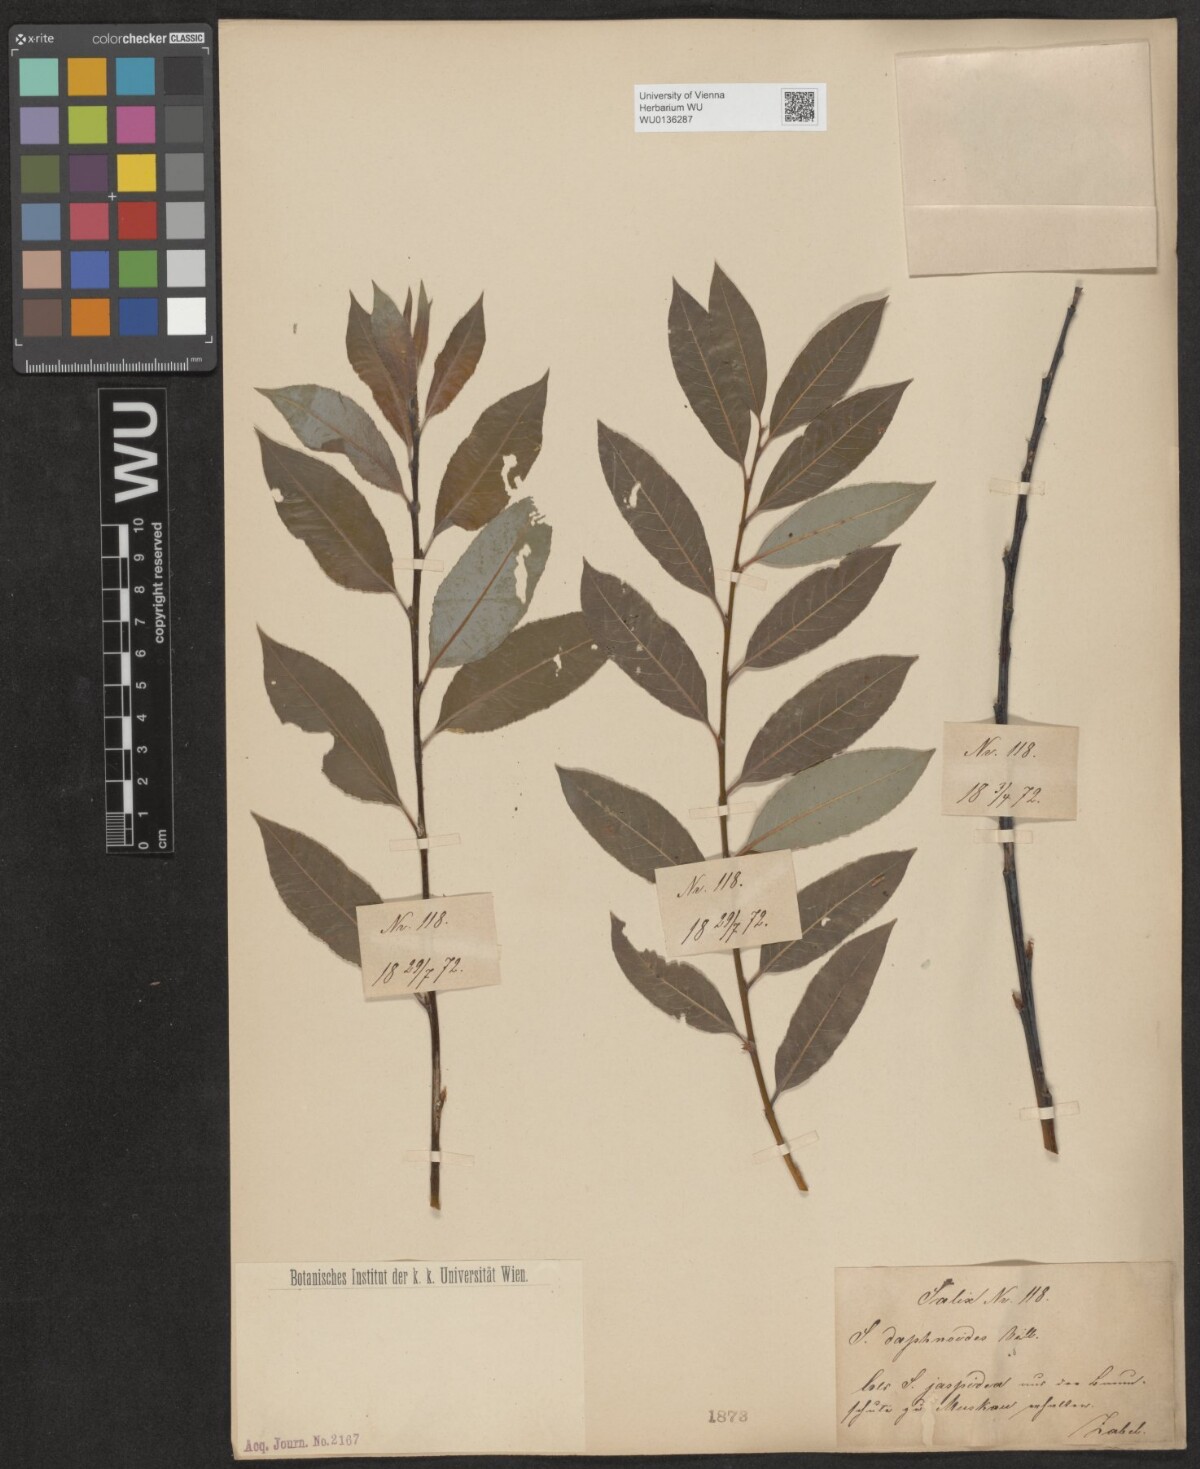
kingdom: Plantae
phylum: Tracheophyta
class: Magnoliopsida
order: Malpighiales
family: Salicaceae
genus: Salix
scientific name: Salix daphnoides
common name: European violet-willow
